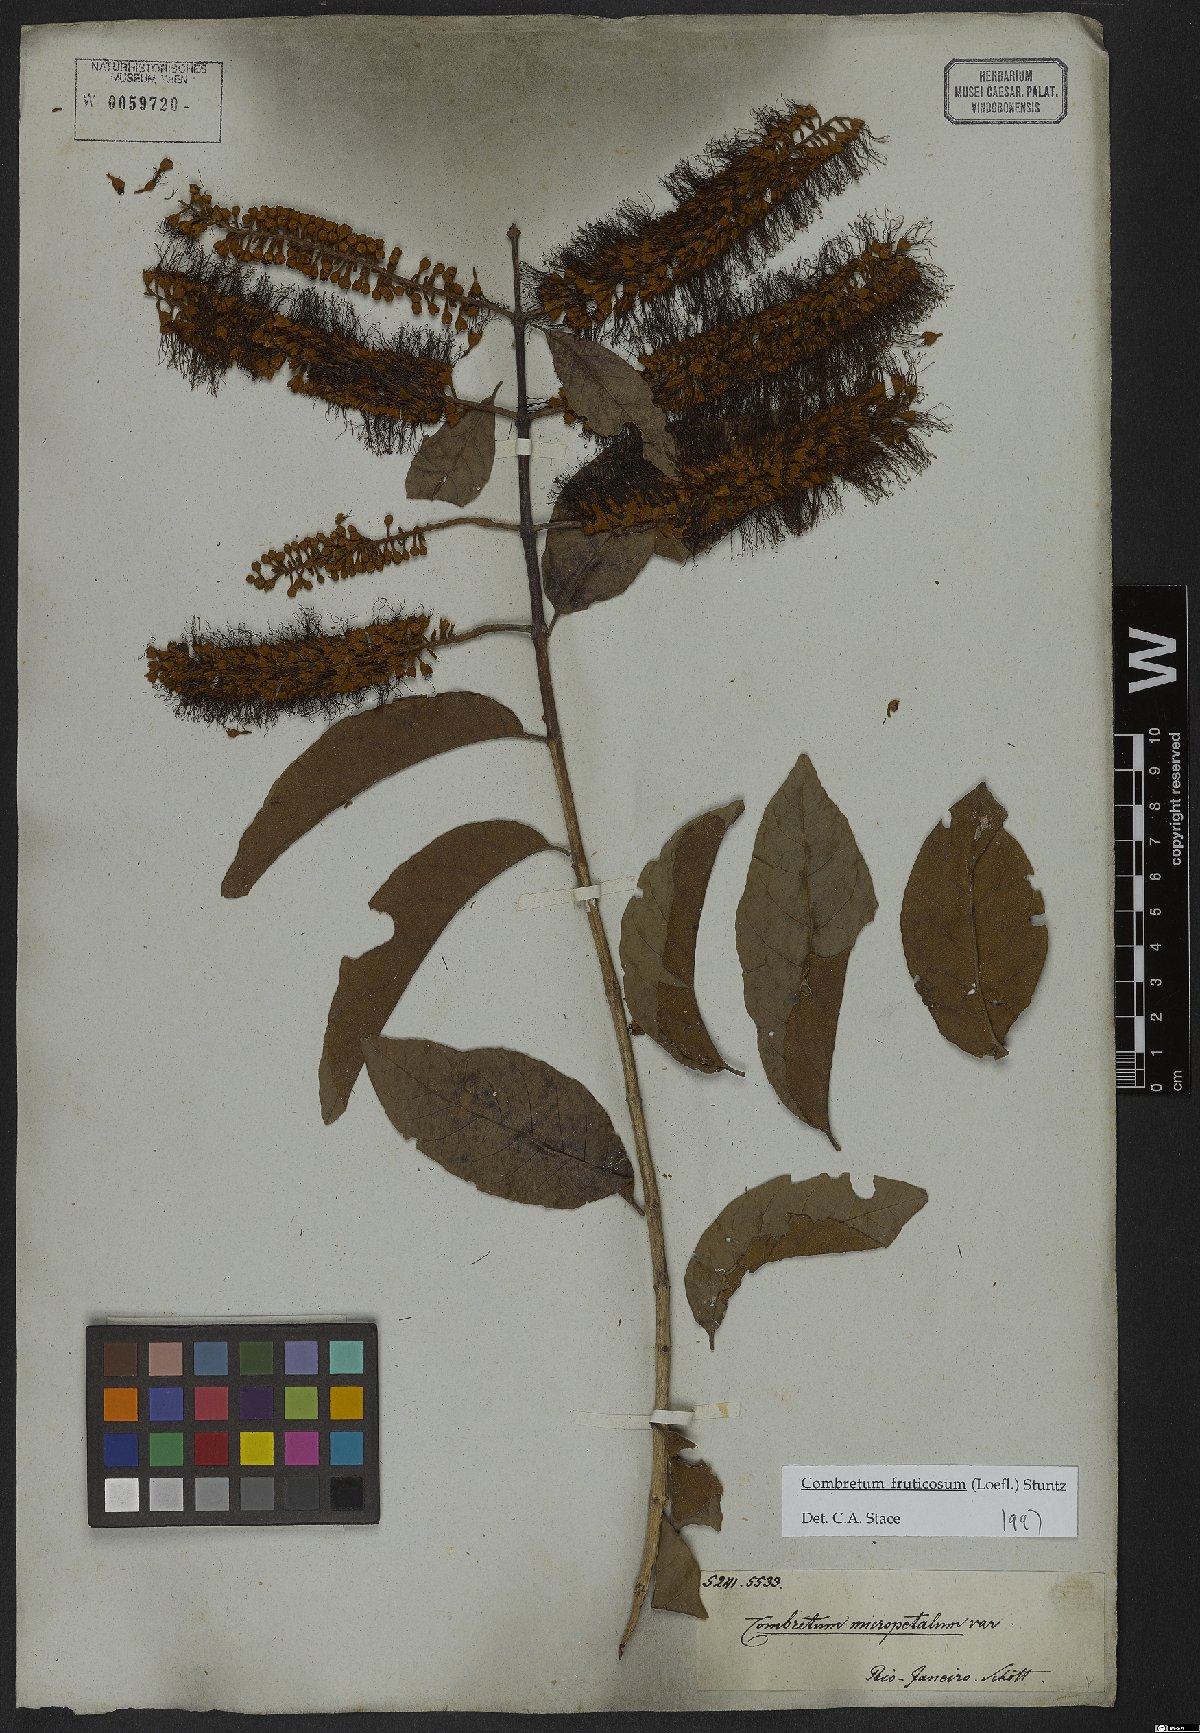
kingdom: Plantae
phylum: Tracheophyta
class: Magnoliopsida
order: Myrtales
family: Combretaceae
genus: Combretum
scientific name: Combretum fruticosum
